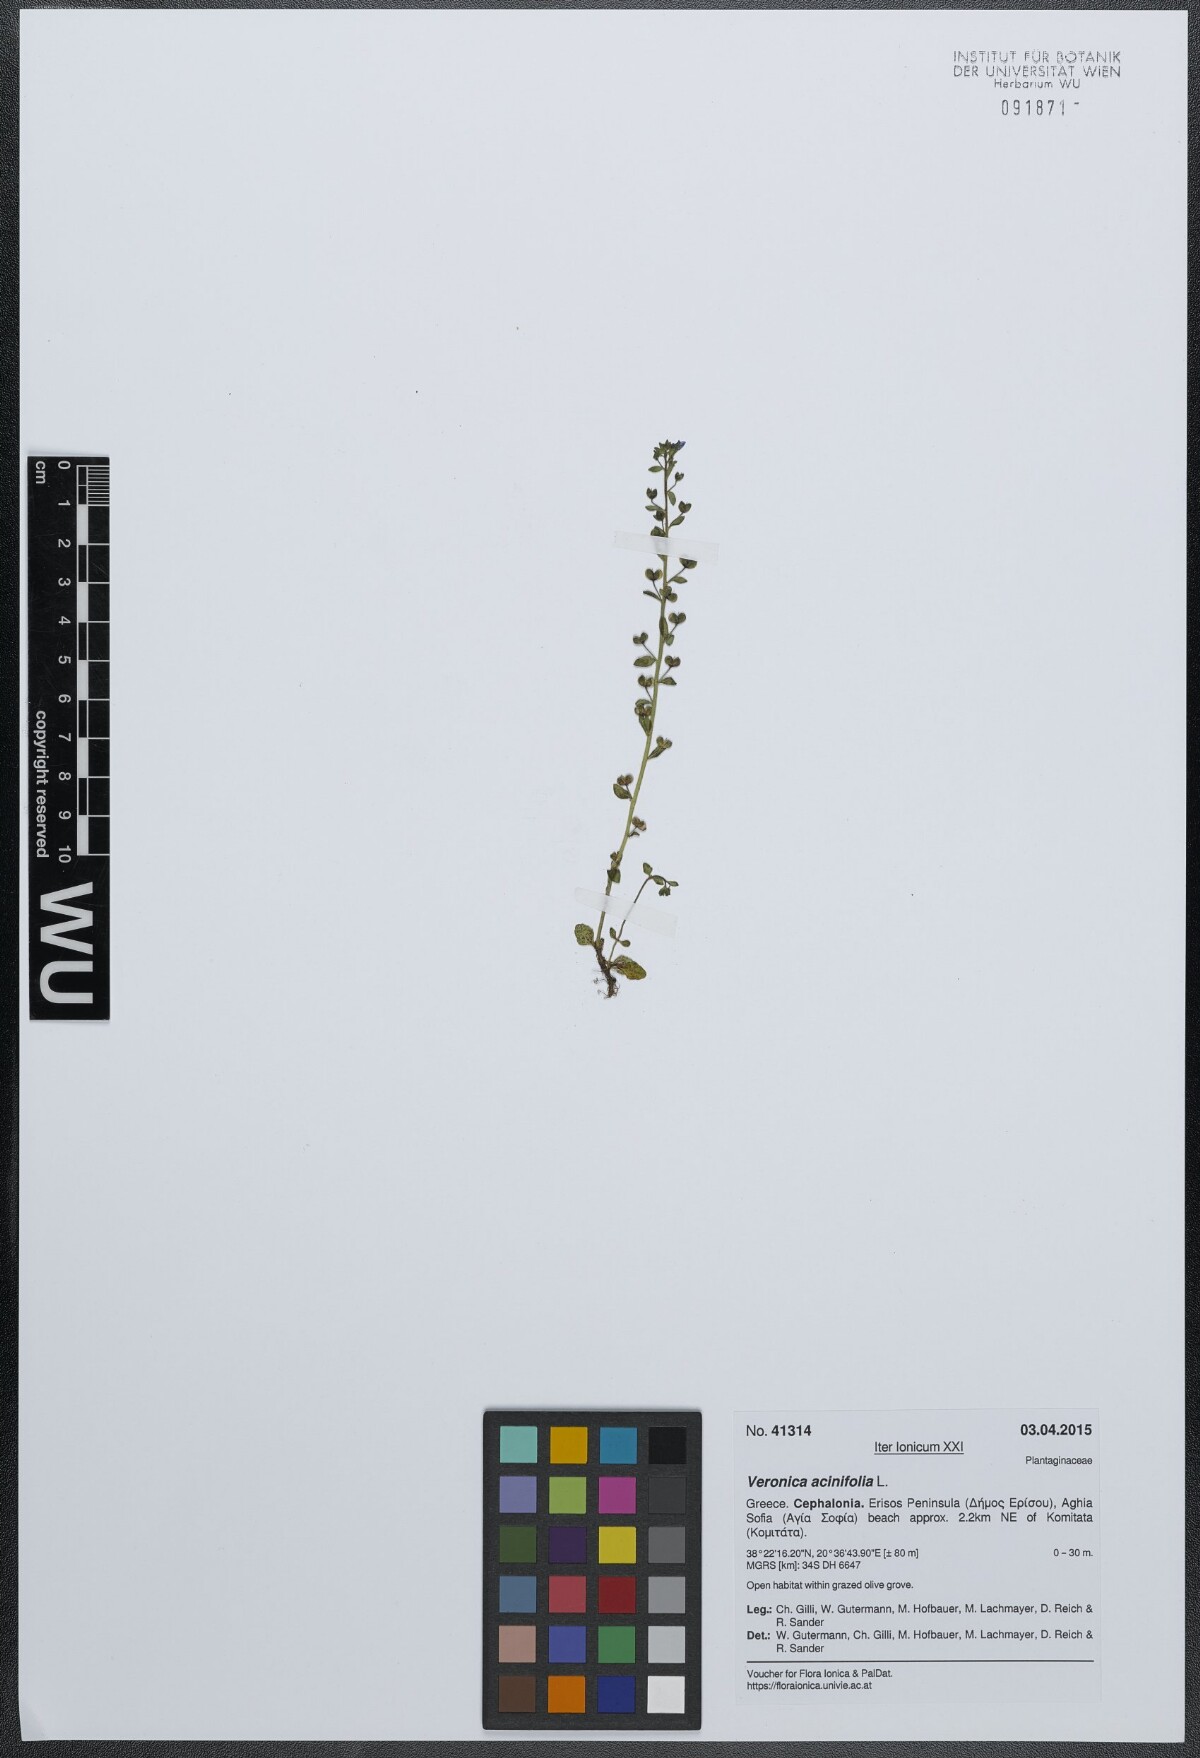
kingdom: Plantae
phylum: Tracheophyta
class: Magnoliopsida
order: Lamiales
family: Plantaginaceae
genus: Veronica
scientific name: Veronica acinifolia
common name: French speedwell
